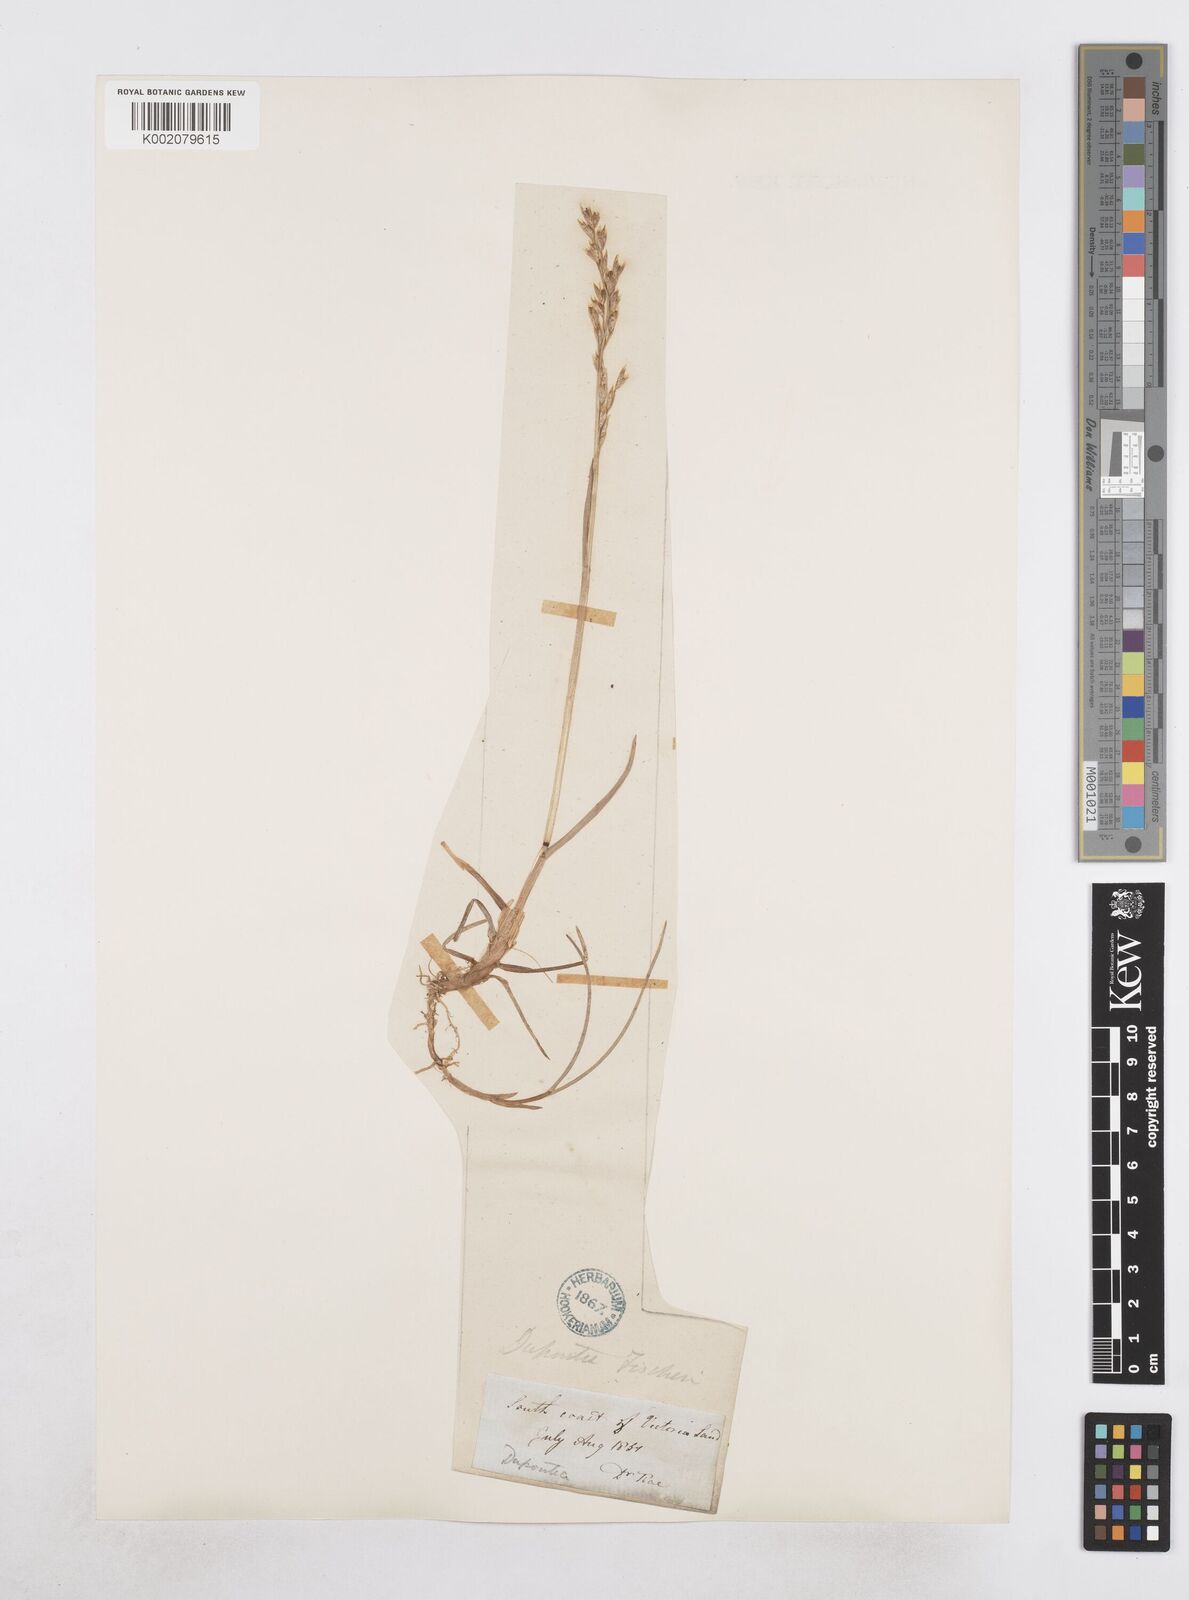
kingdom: Plantae
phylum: Tracheophyta
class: Liliopsida
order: Poales
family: Poaceae
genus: Dupontia
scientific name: Dupontia fisheri
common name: Tundra grass
